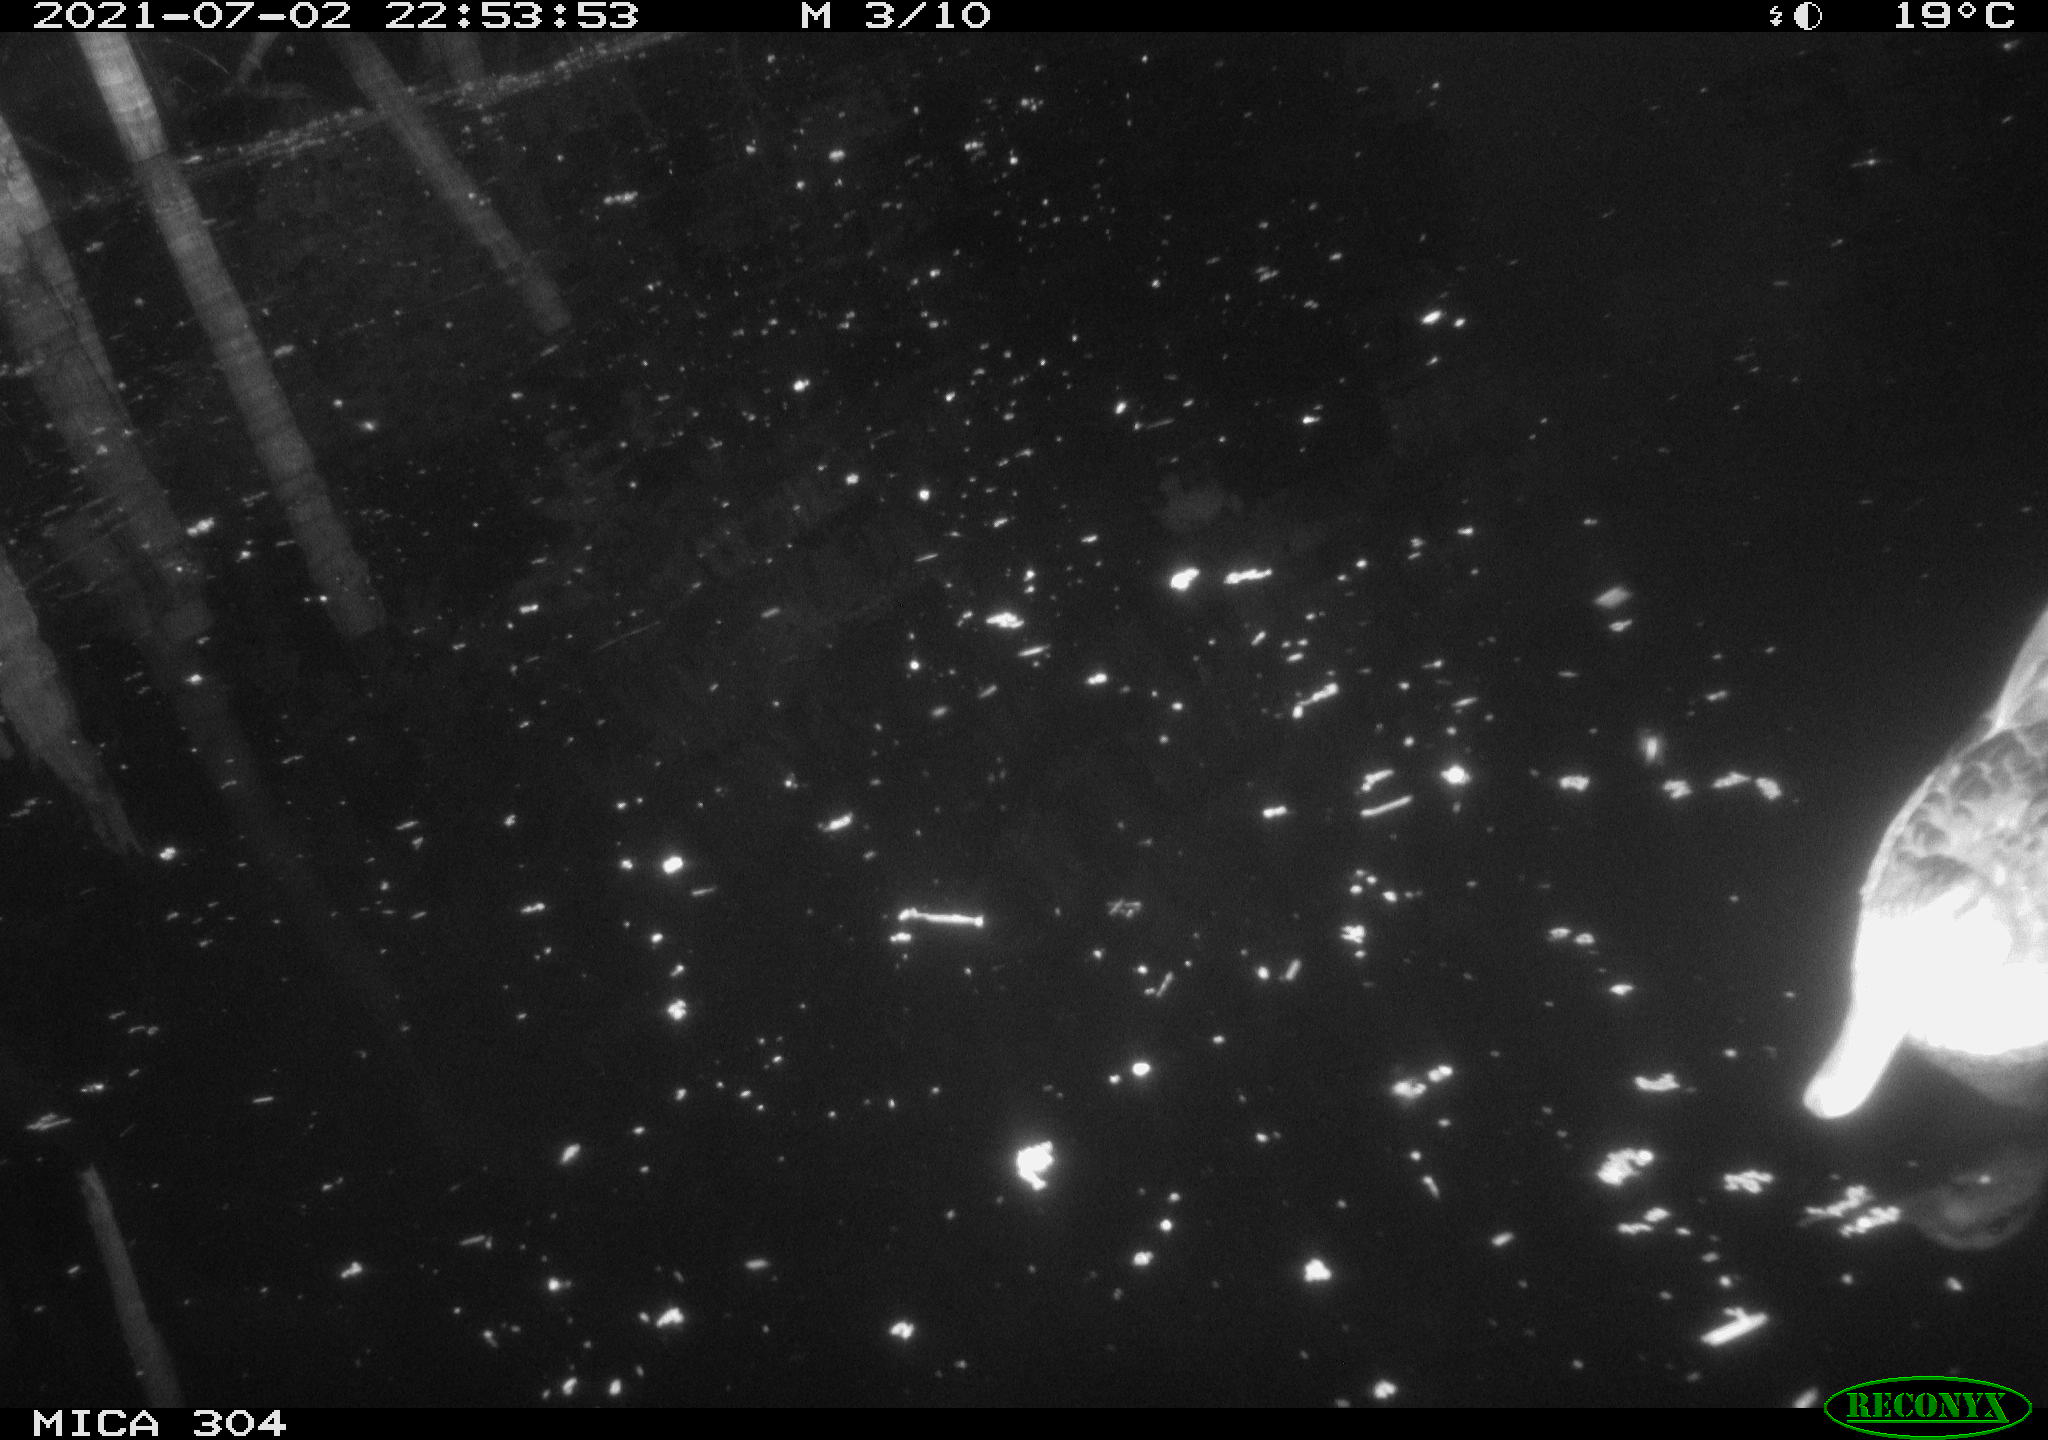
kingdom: Animalia
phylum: Chordata
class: Aves
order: Anseriformes
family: Anatidae
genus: Anas
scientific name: Anas platyrhynchos
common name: Mallard
